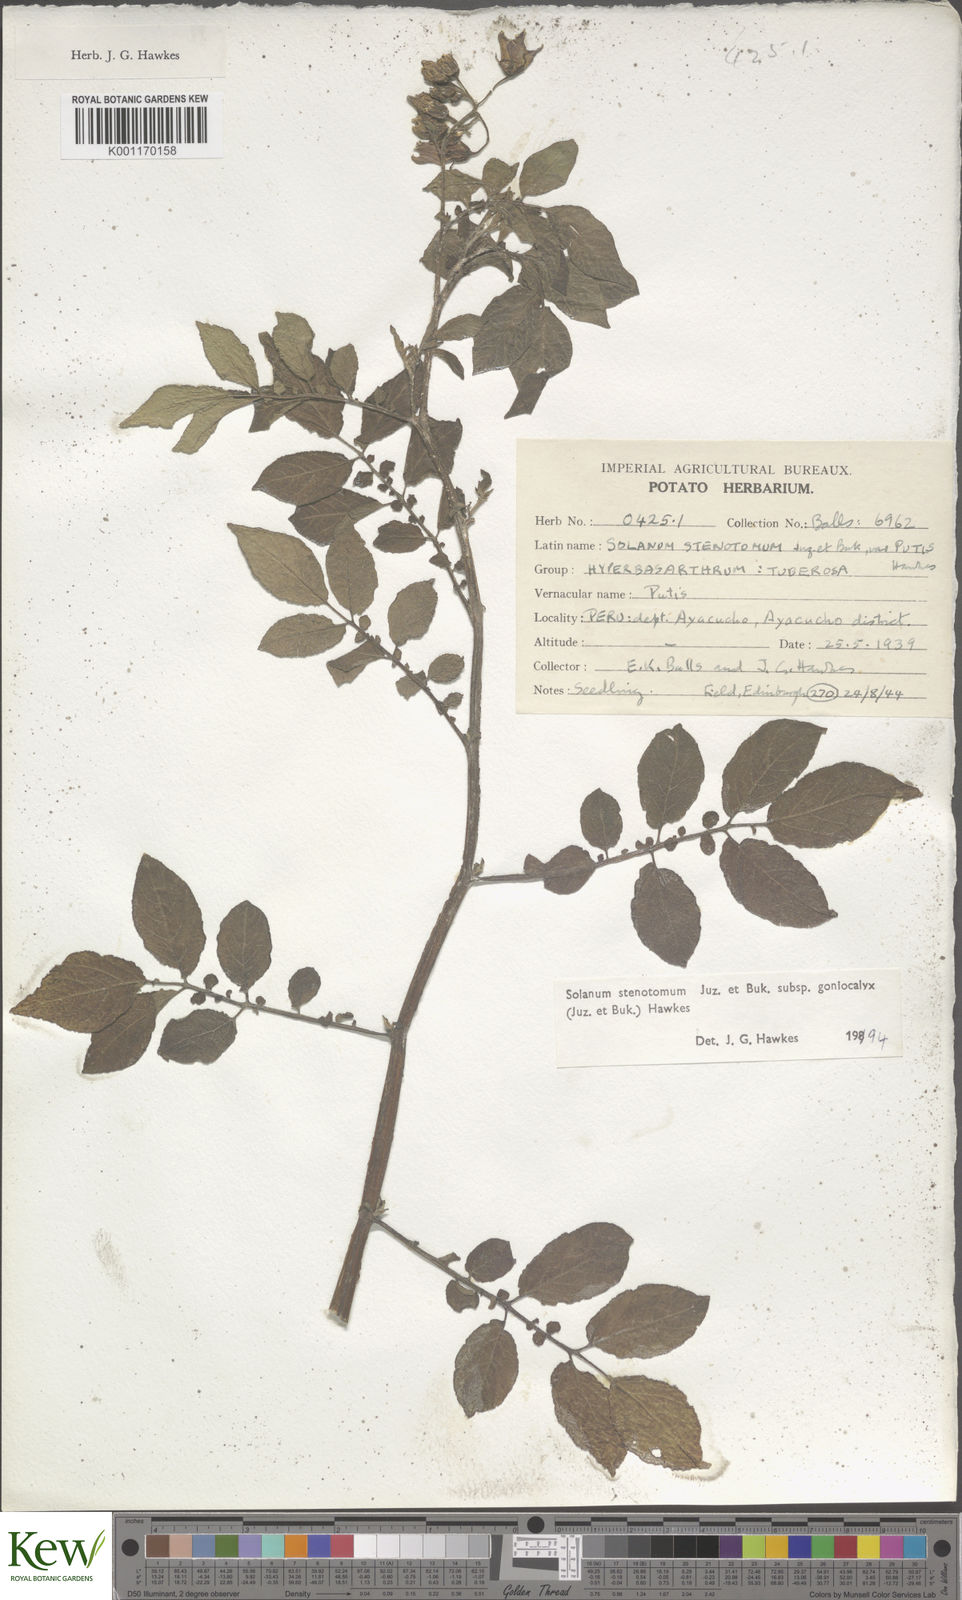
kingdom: Plantae
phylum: Tracheophyta
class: Magnoliopsida
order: Solanales
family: Solanaceae
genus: Solanum
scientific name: Solanum tuberosum
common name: Potato
